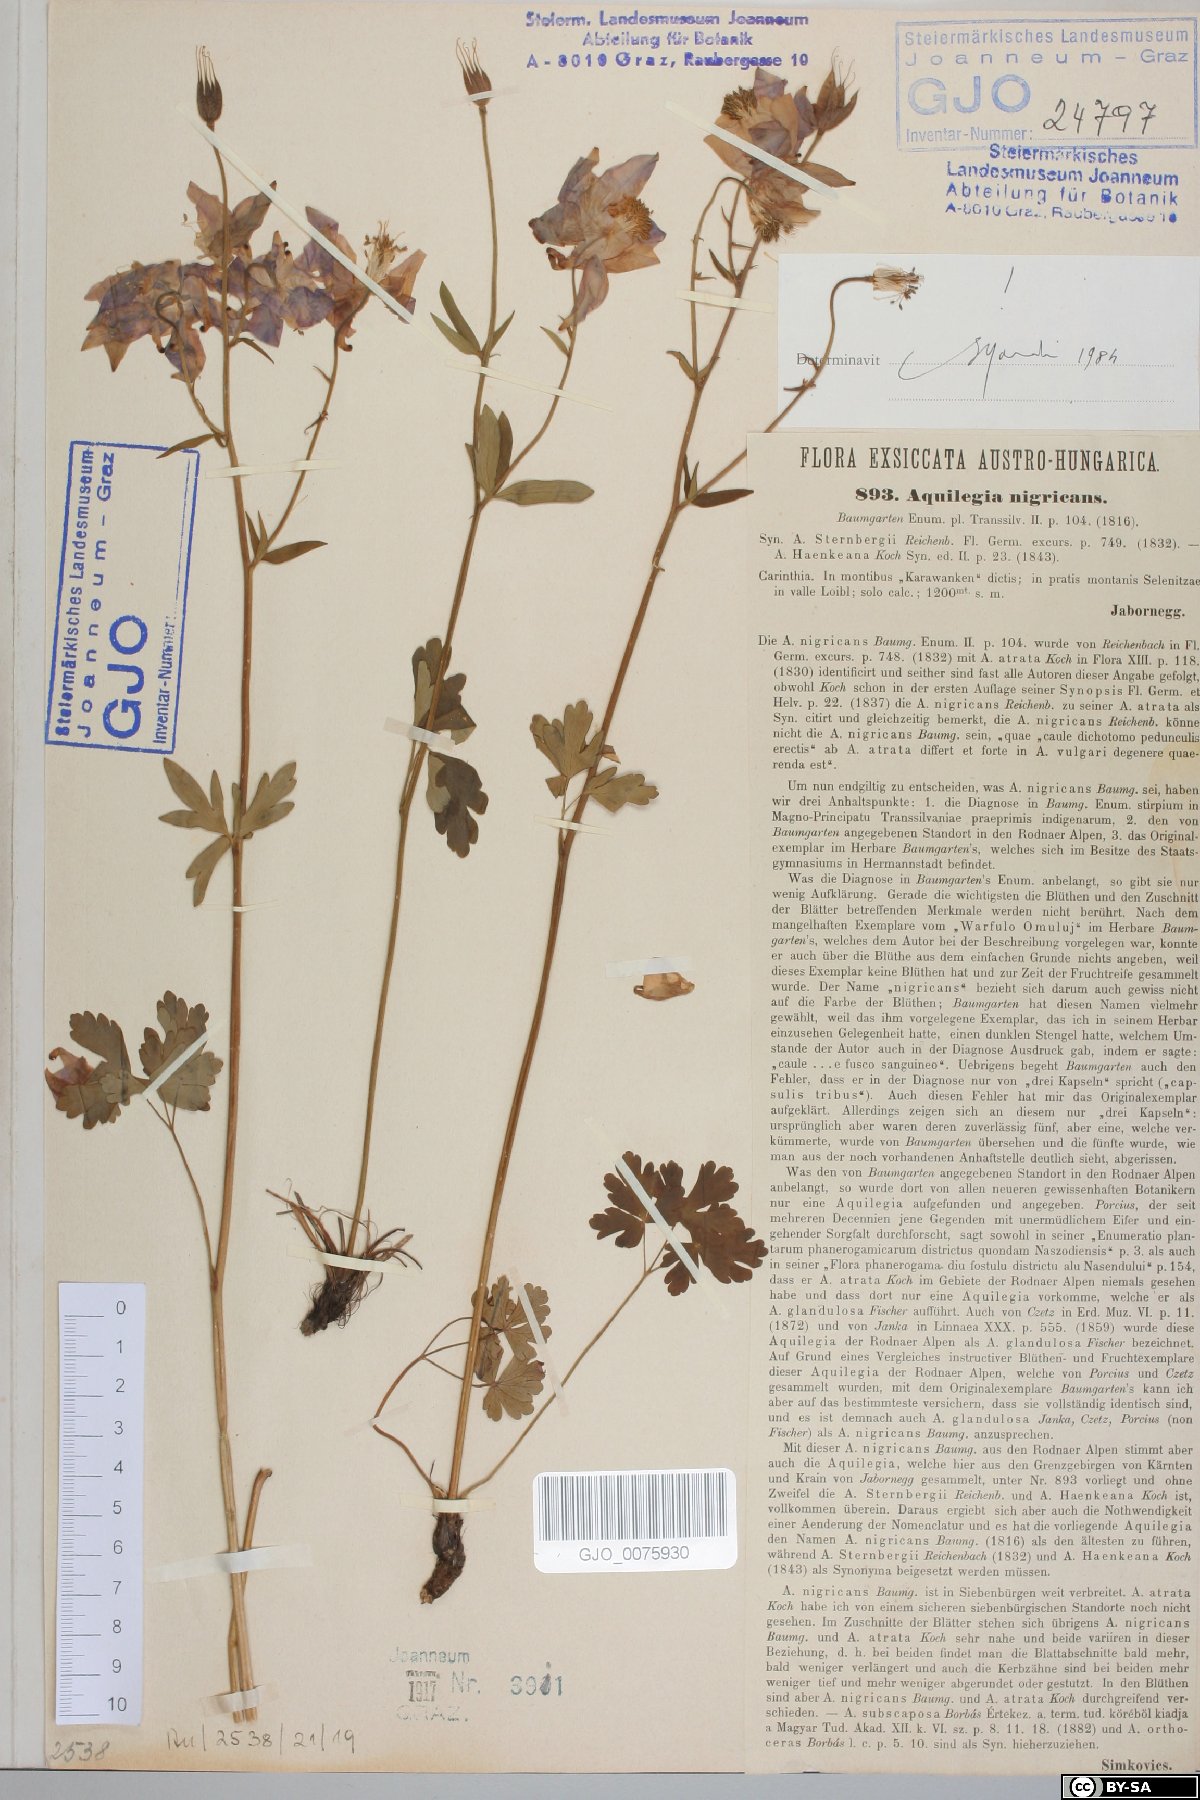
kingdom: Plantae
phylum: Tracheophyta
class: Magnoliopsida
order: Ranunculales
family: Ranunculaceae
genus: Aquilegia
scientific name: Aquilegia nigricans
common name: Bulgarian columbine
